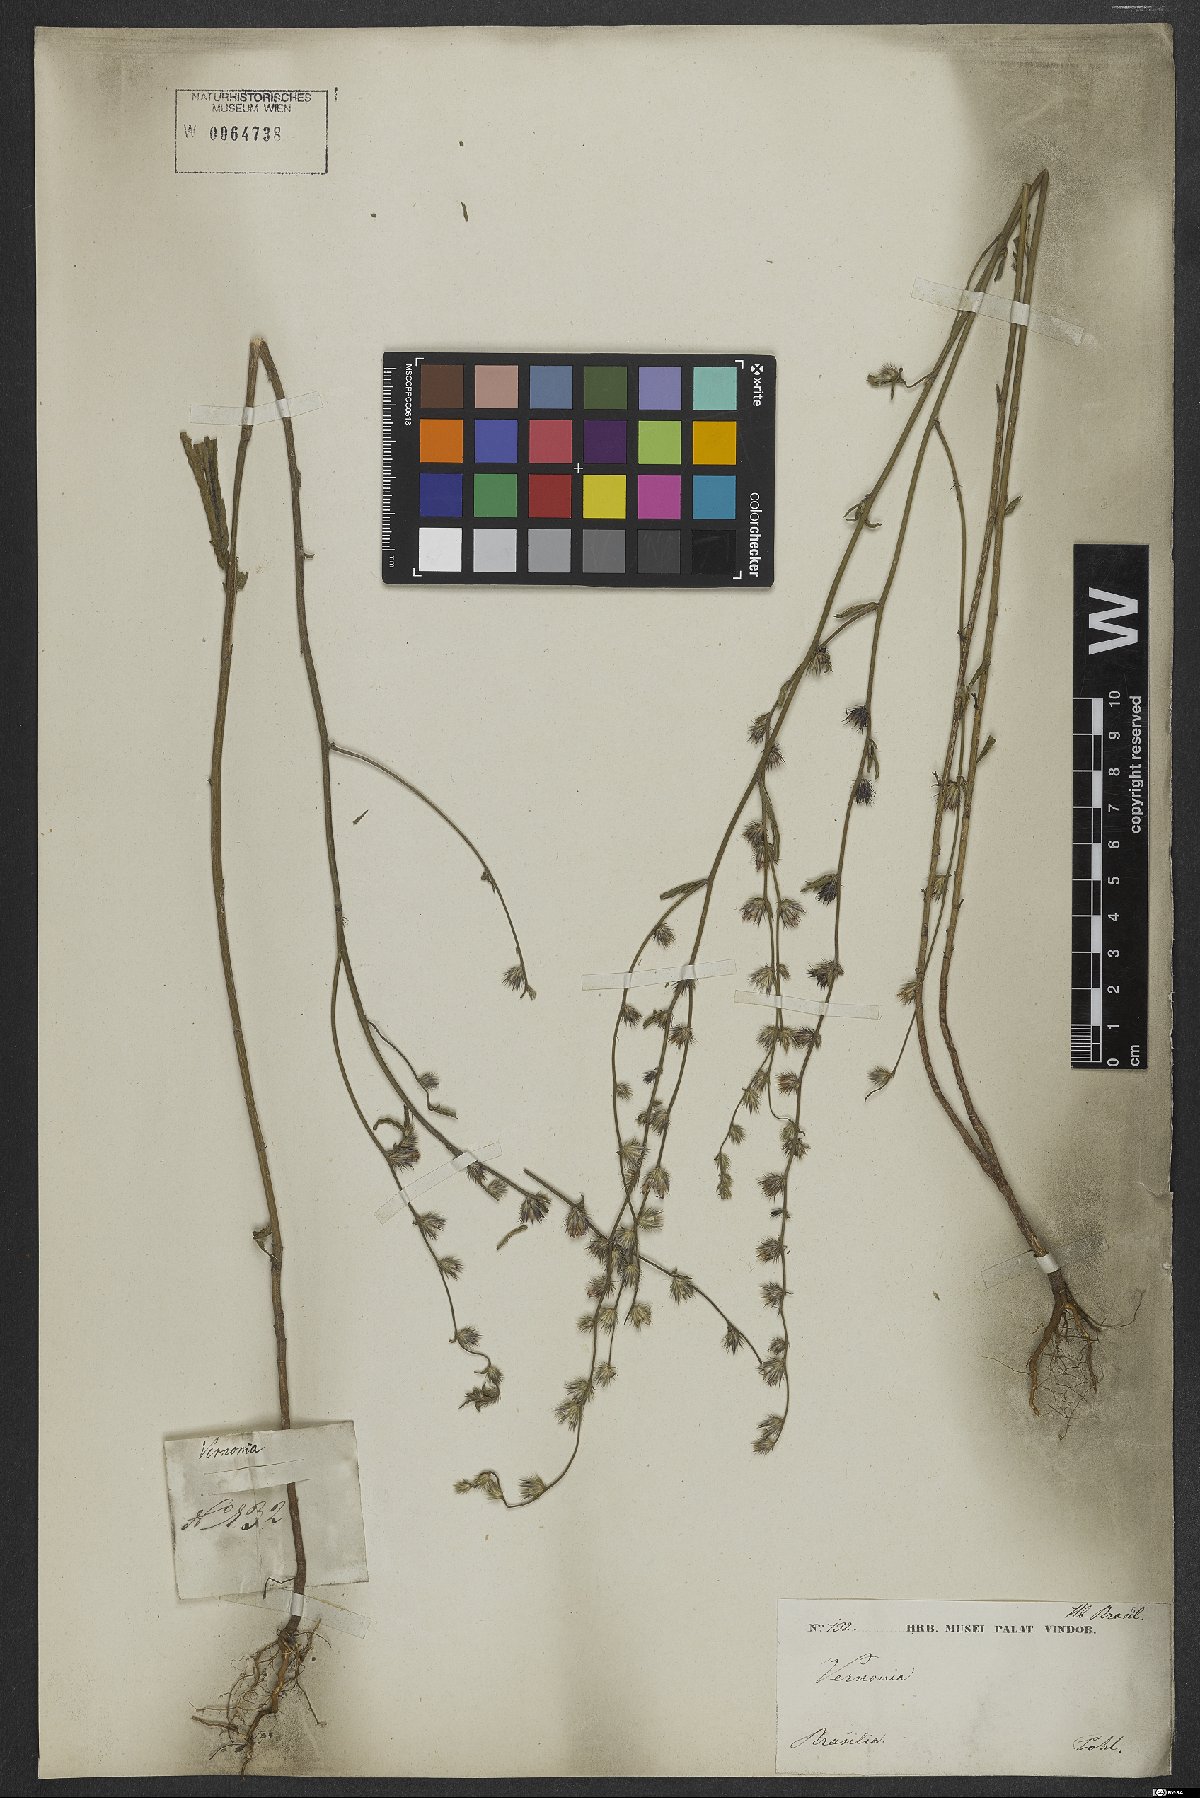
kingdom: Plantae
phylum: Tracheophyta
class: Magnoliopsida
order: Asterales
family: Asteraceae
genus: Lepidaploa
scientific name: Lepidaploa remotiflora
